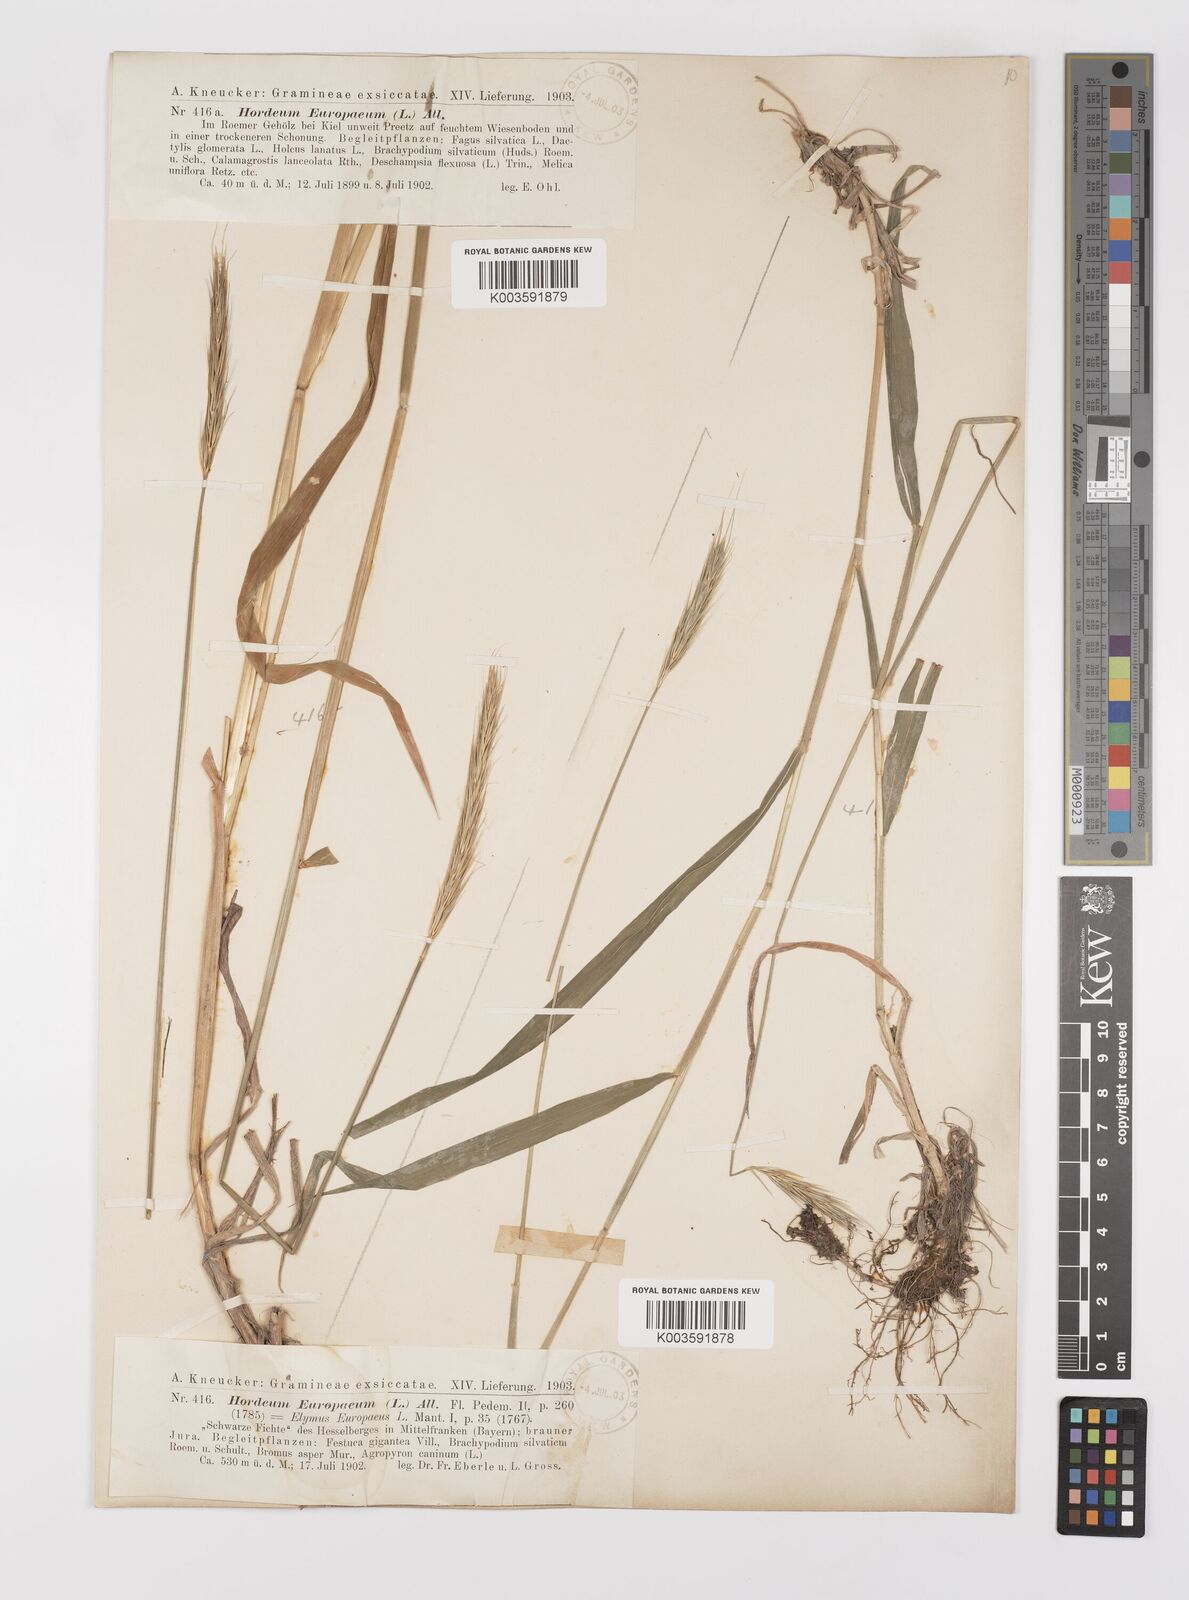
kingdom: Plantae
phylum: Tracheophyta
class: Liliopsida
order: Poales
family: Poaceae
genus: Hordelymus
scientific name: Hordelymus europaeus
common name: Wood-barley
